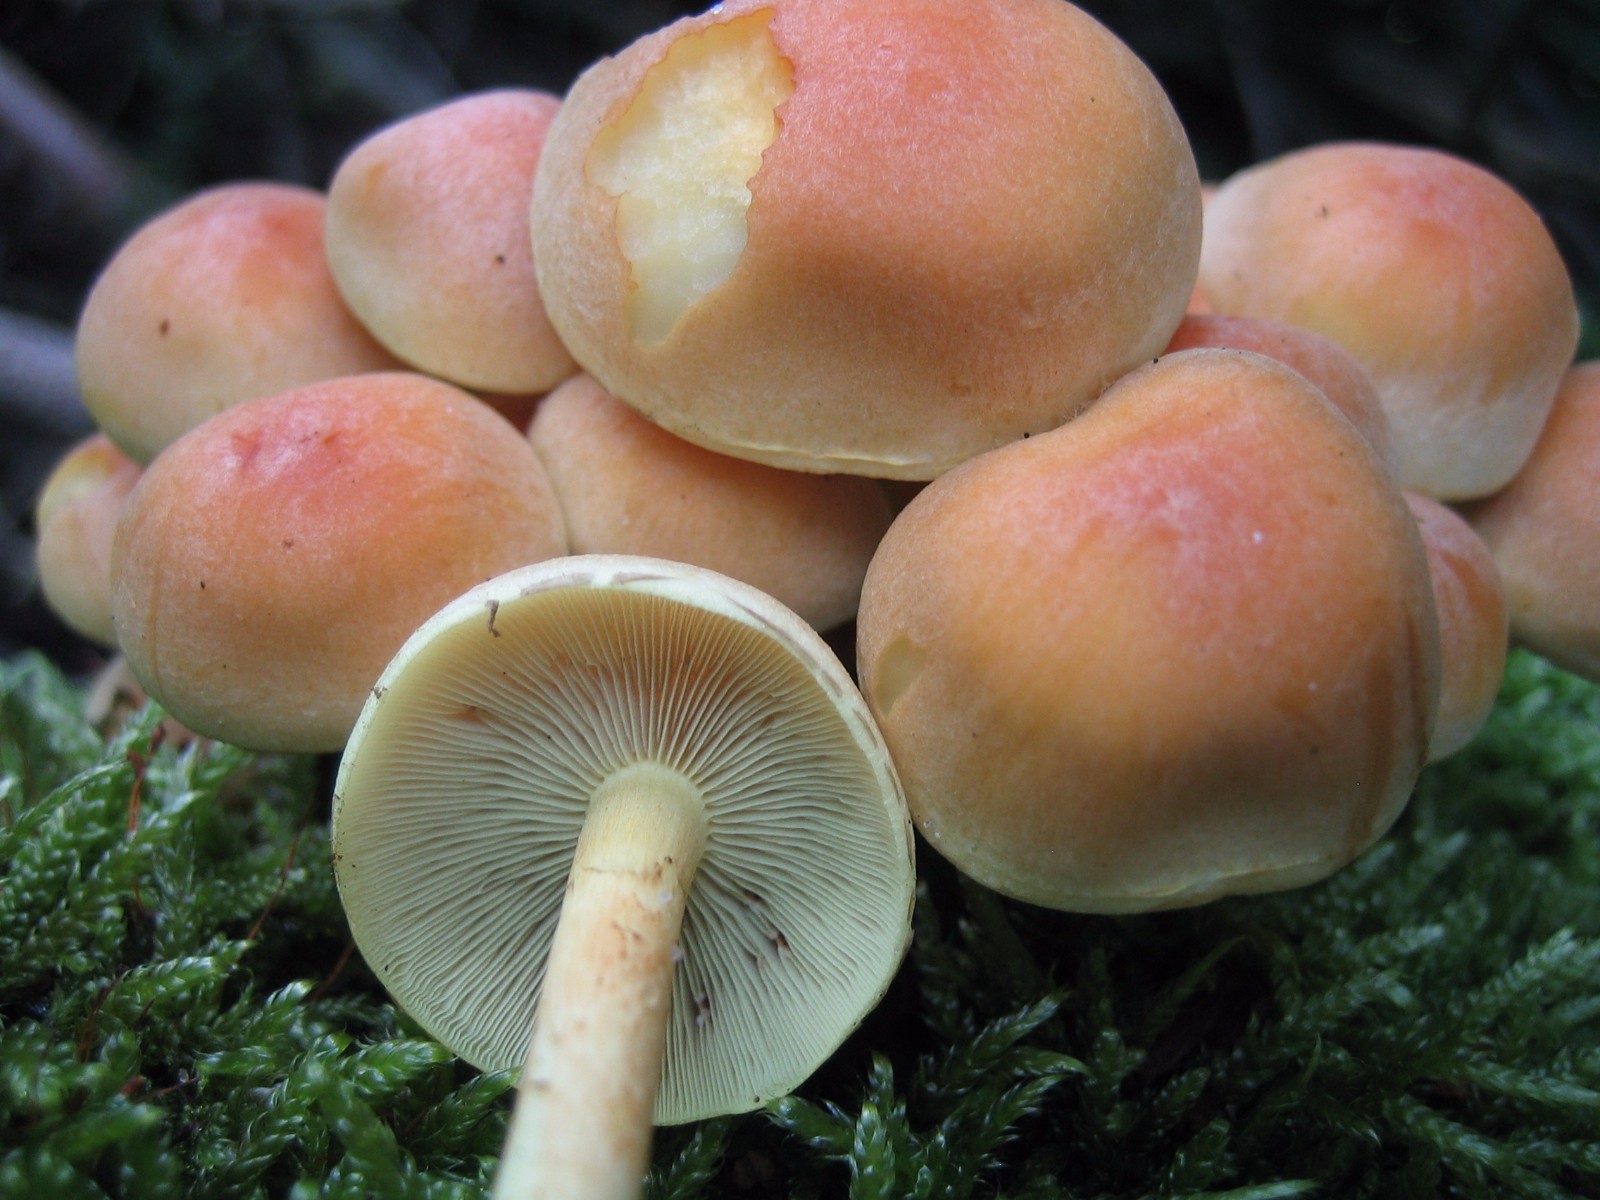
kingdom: Fungi
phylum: Basidiomycota
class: Agaricomycetes
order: Agaricales
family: Strophariaceae
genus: Hypholoma
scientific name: Hypholoma fasciculare
